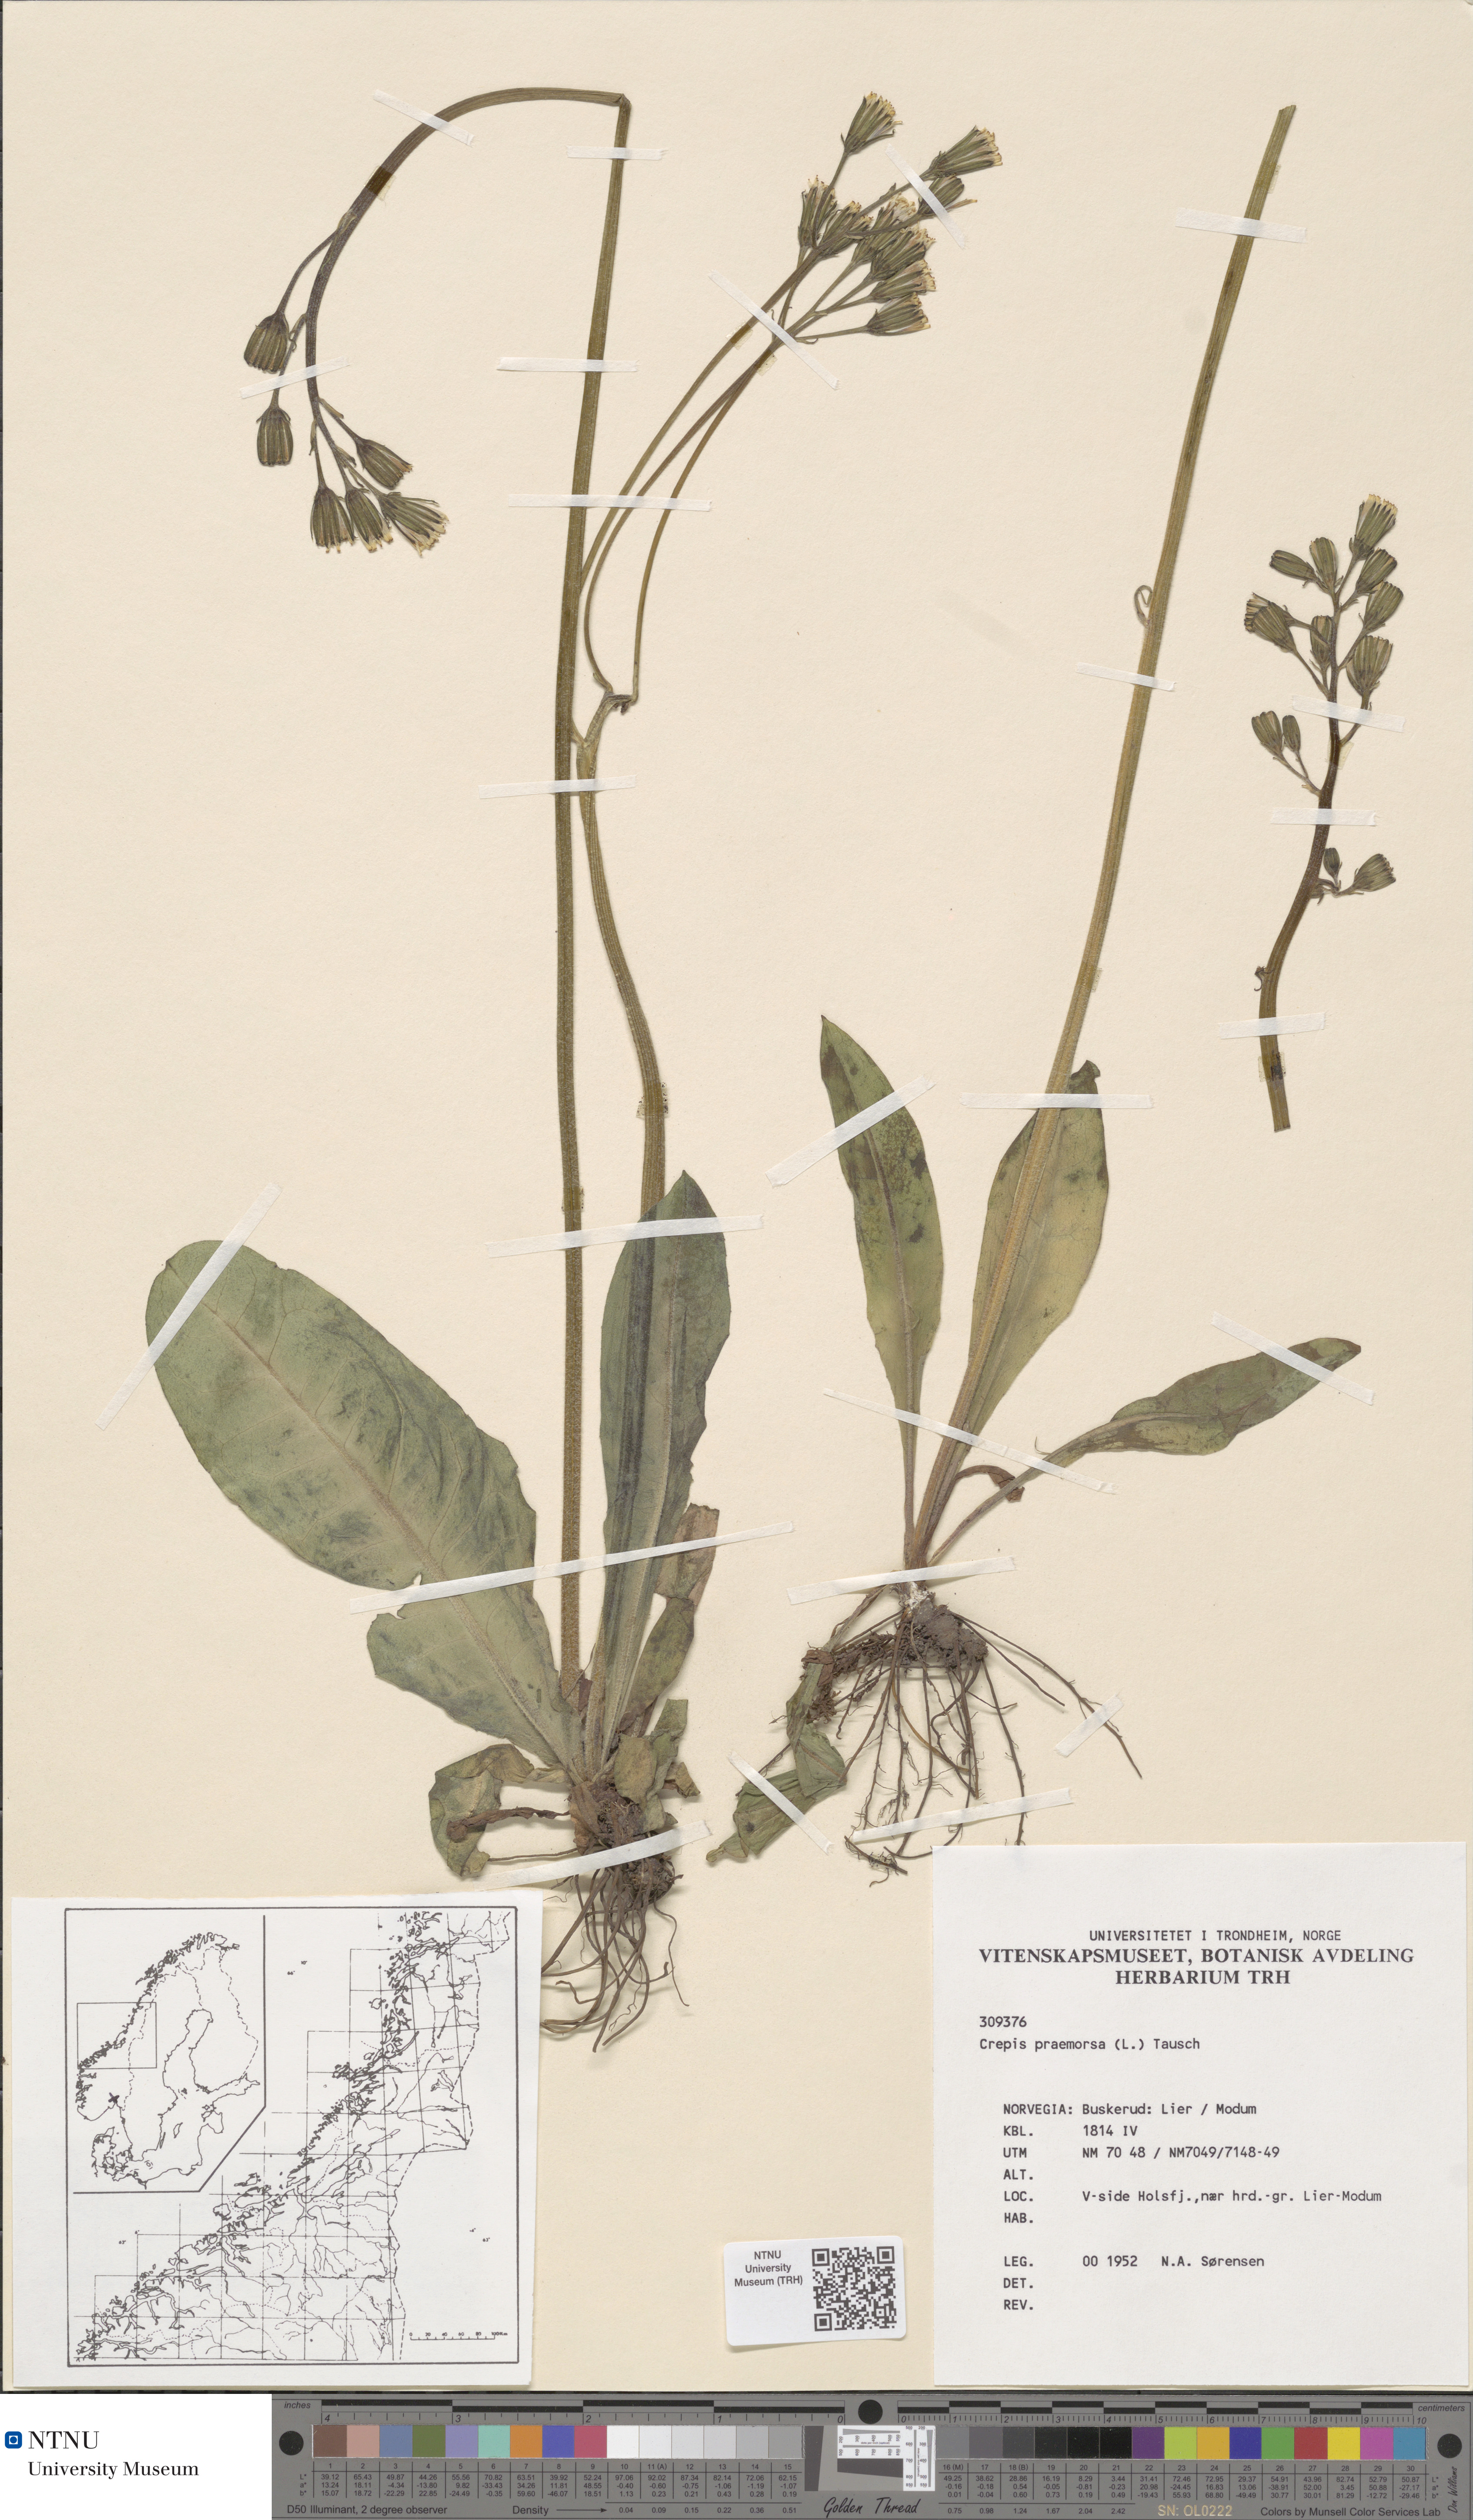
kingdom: Plantae
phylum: Tracheophyta
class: Magnoliopsida
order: Asterales
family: Asteraceae
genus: Crepis
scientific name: Crepis praemorsa
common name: Leafless hawk's-beard
